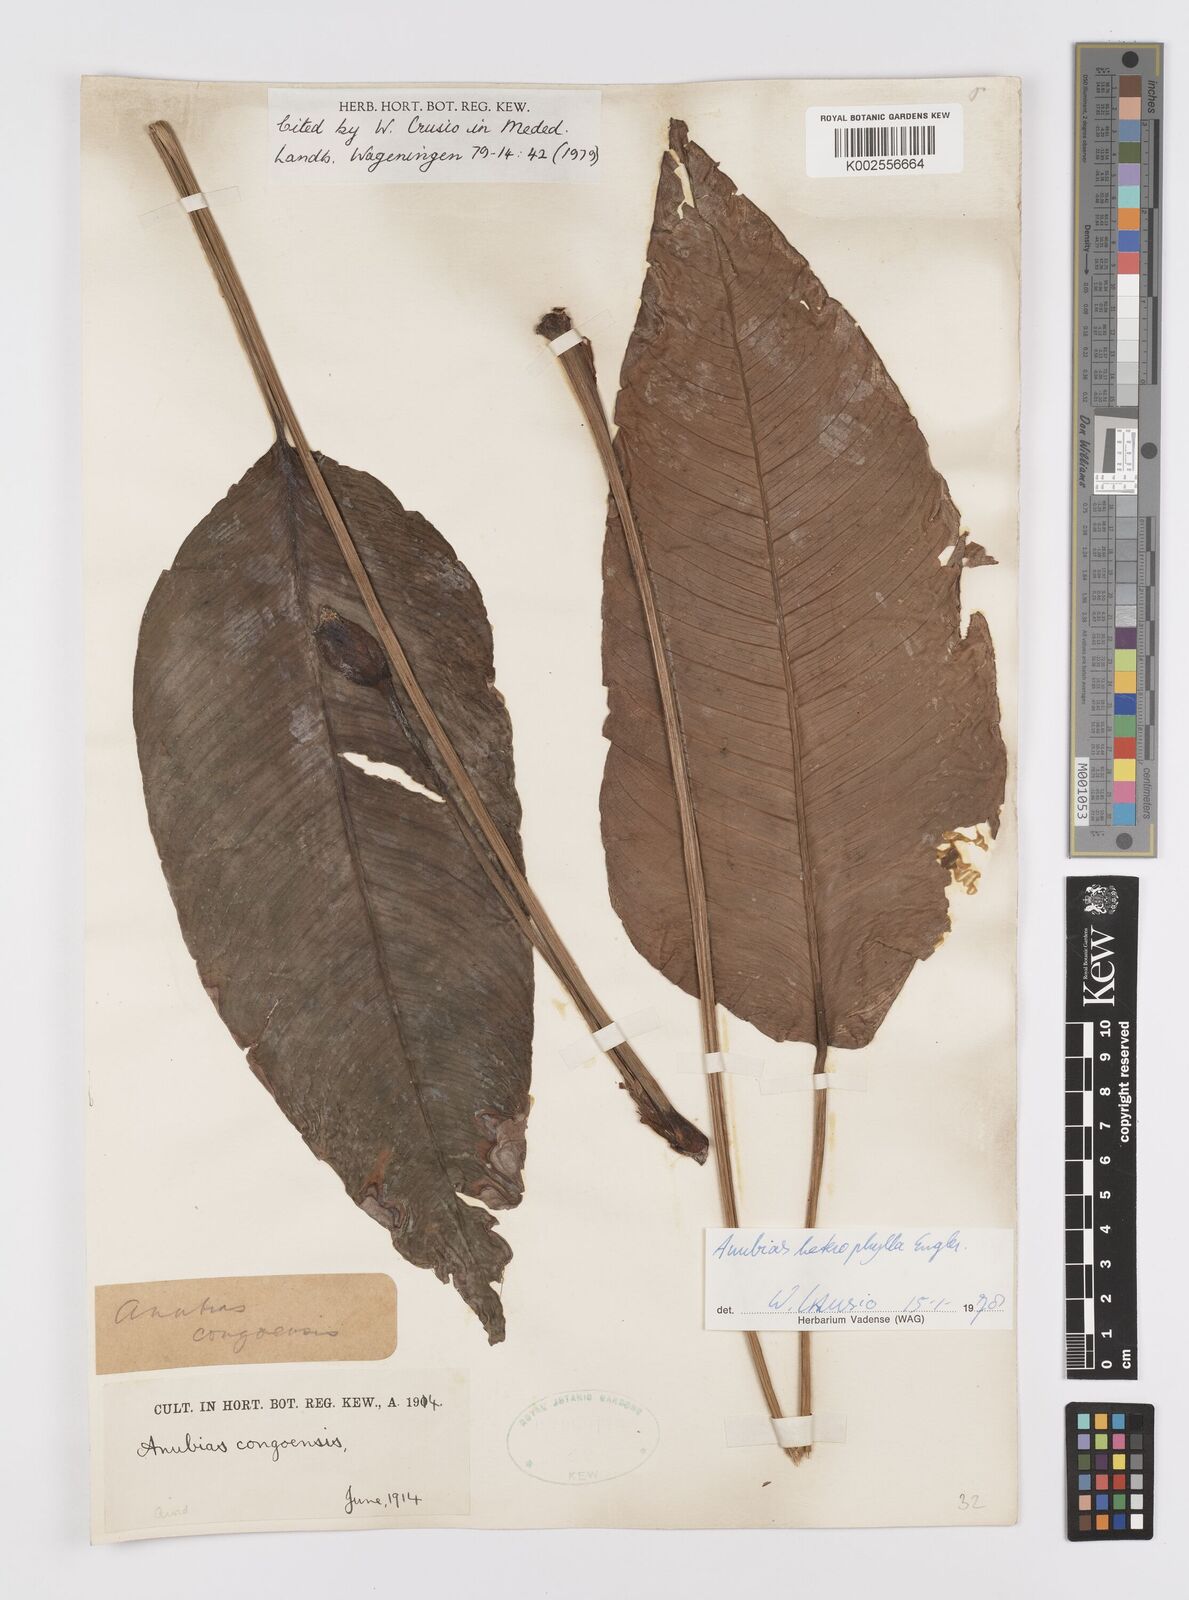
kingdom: Plantae
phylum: Tracheophyta
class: Liliopsida
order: Alismatales
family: Araceae
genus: Anubias
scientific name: Anubias heterophylla
